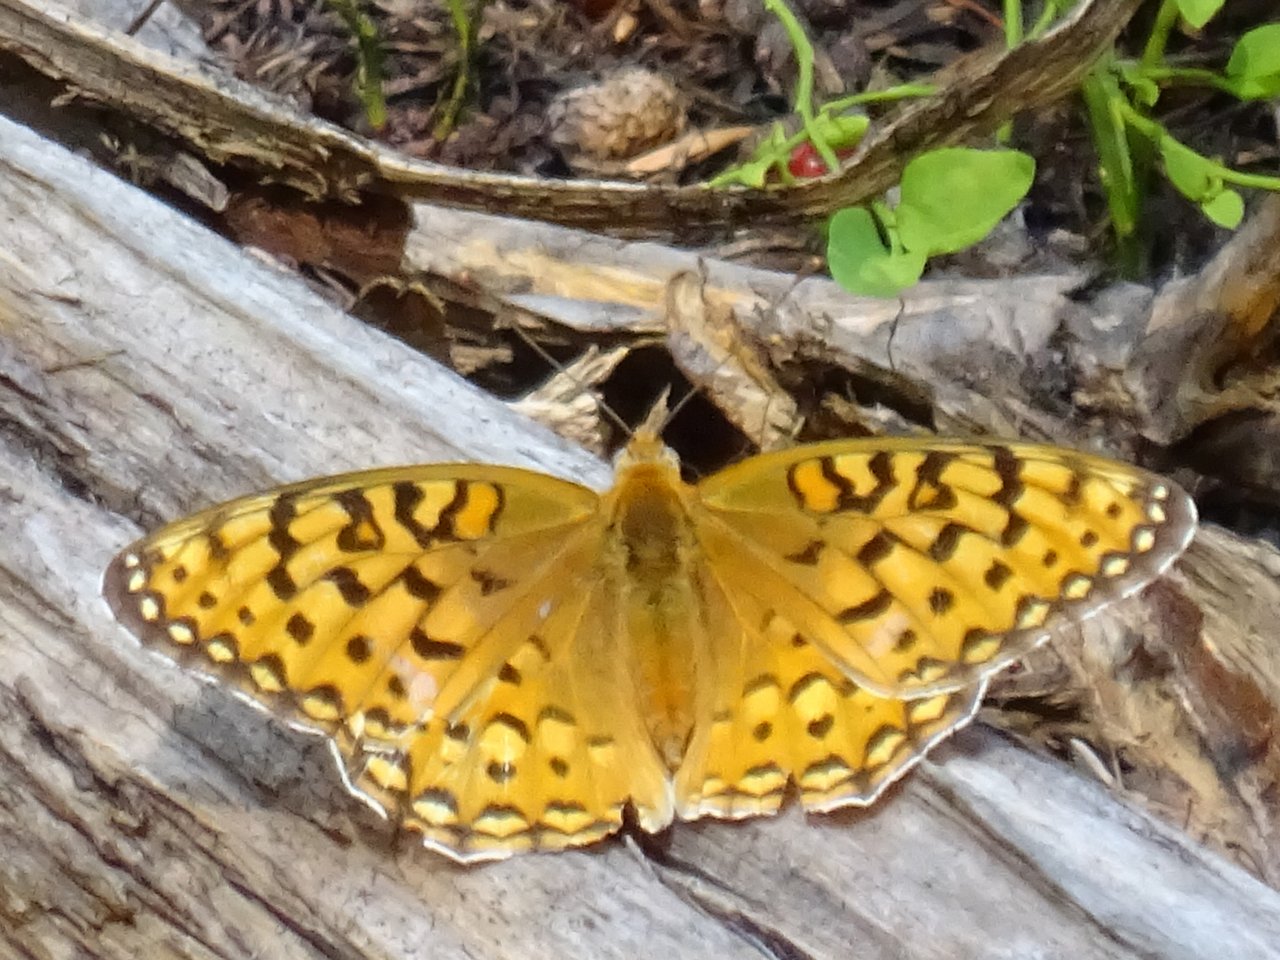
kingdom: Animalia
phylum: Arthropoda
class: Insecta
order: Lepidoptera
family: Nymphalidae
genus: Speyeria
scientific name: Speyeria callippe
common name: Callippe Fritillary
